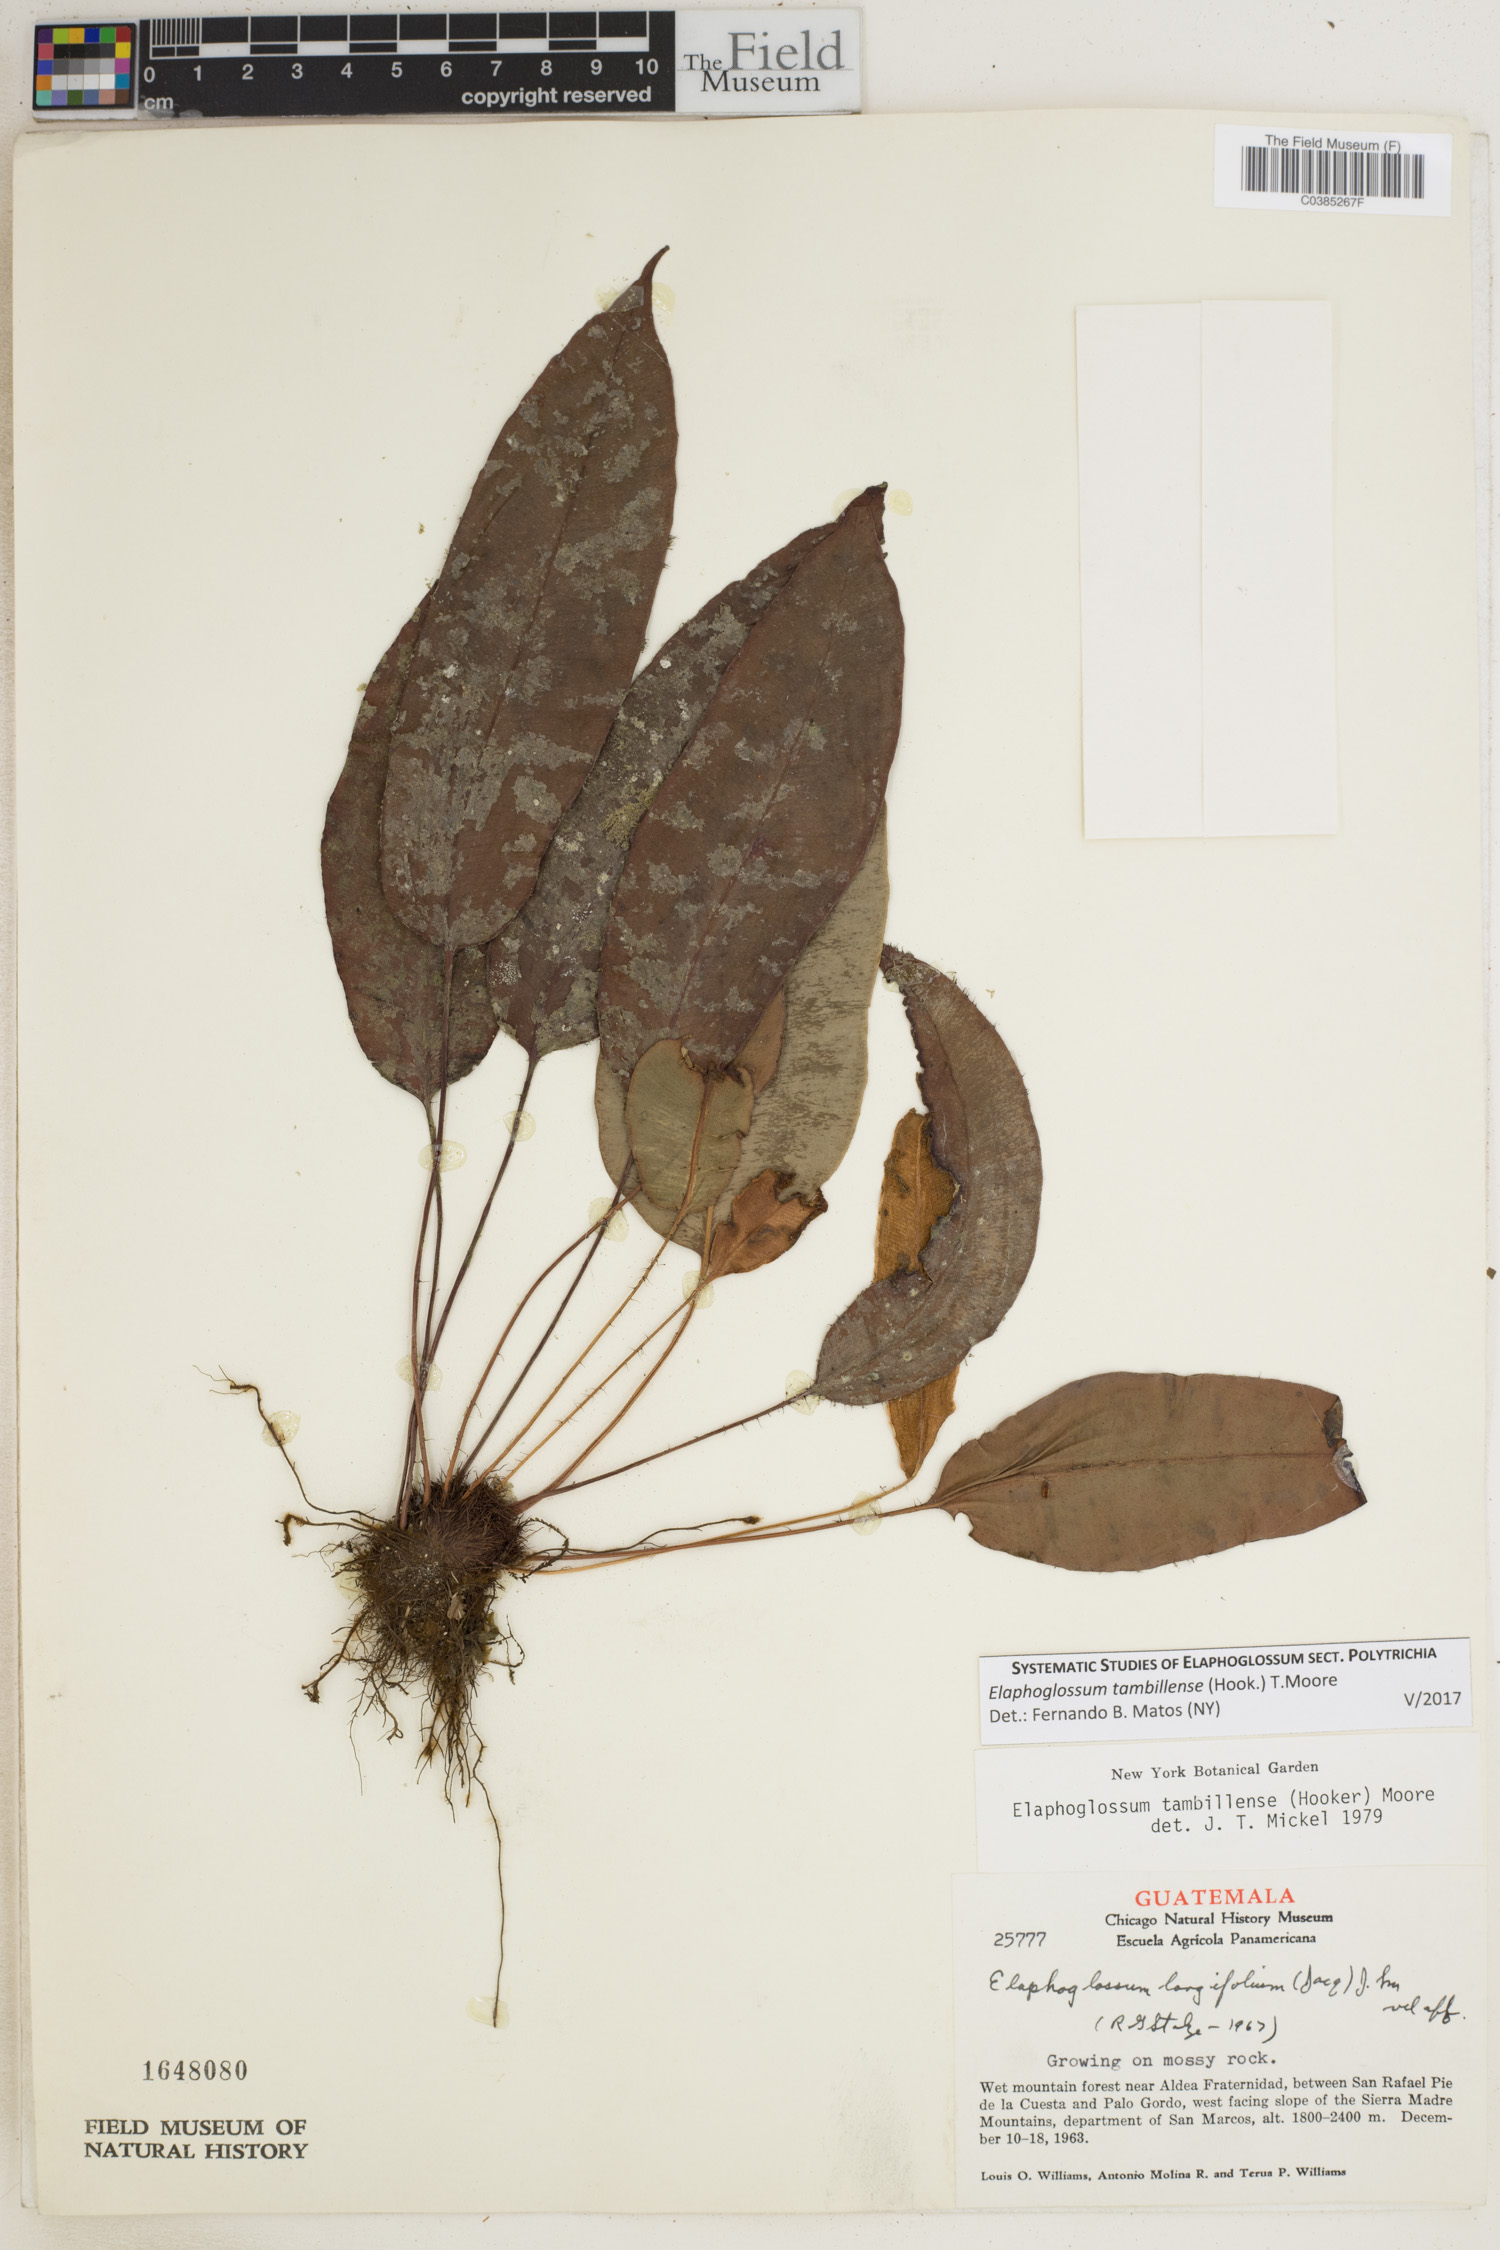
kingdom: Plantae
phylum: Tracheophyta
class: Polypodiopsida
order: Polypodiales
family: Dryopteridaceae
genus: Elaphoglossum
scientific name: Elaphoglossum tambillense
